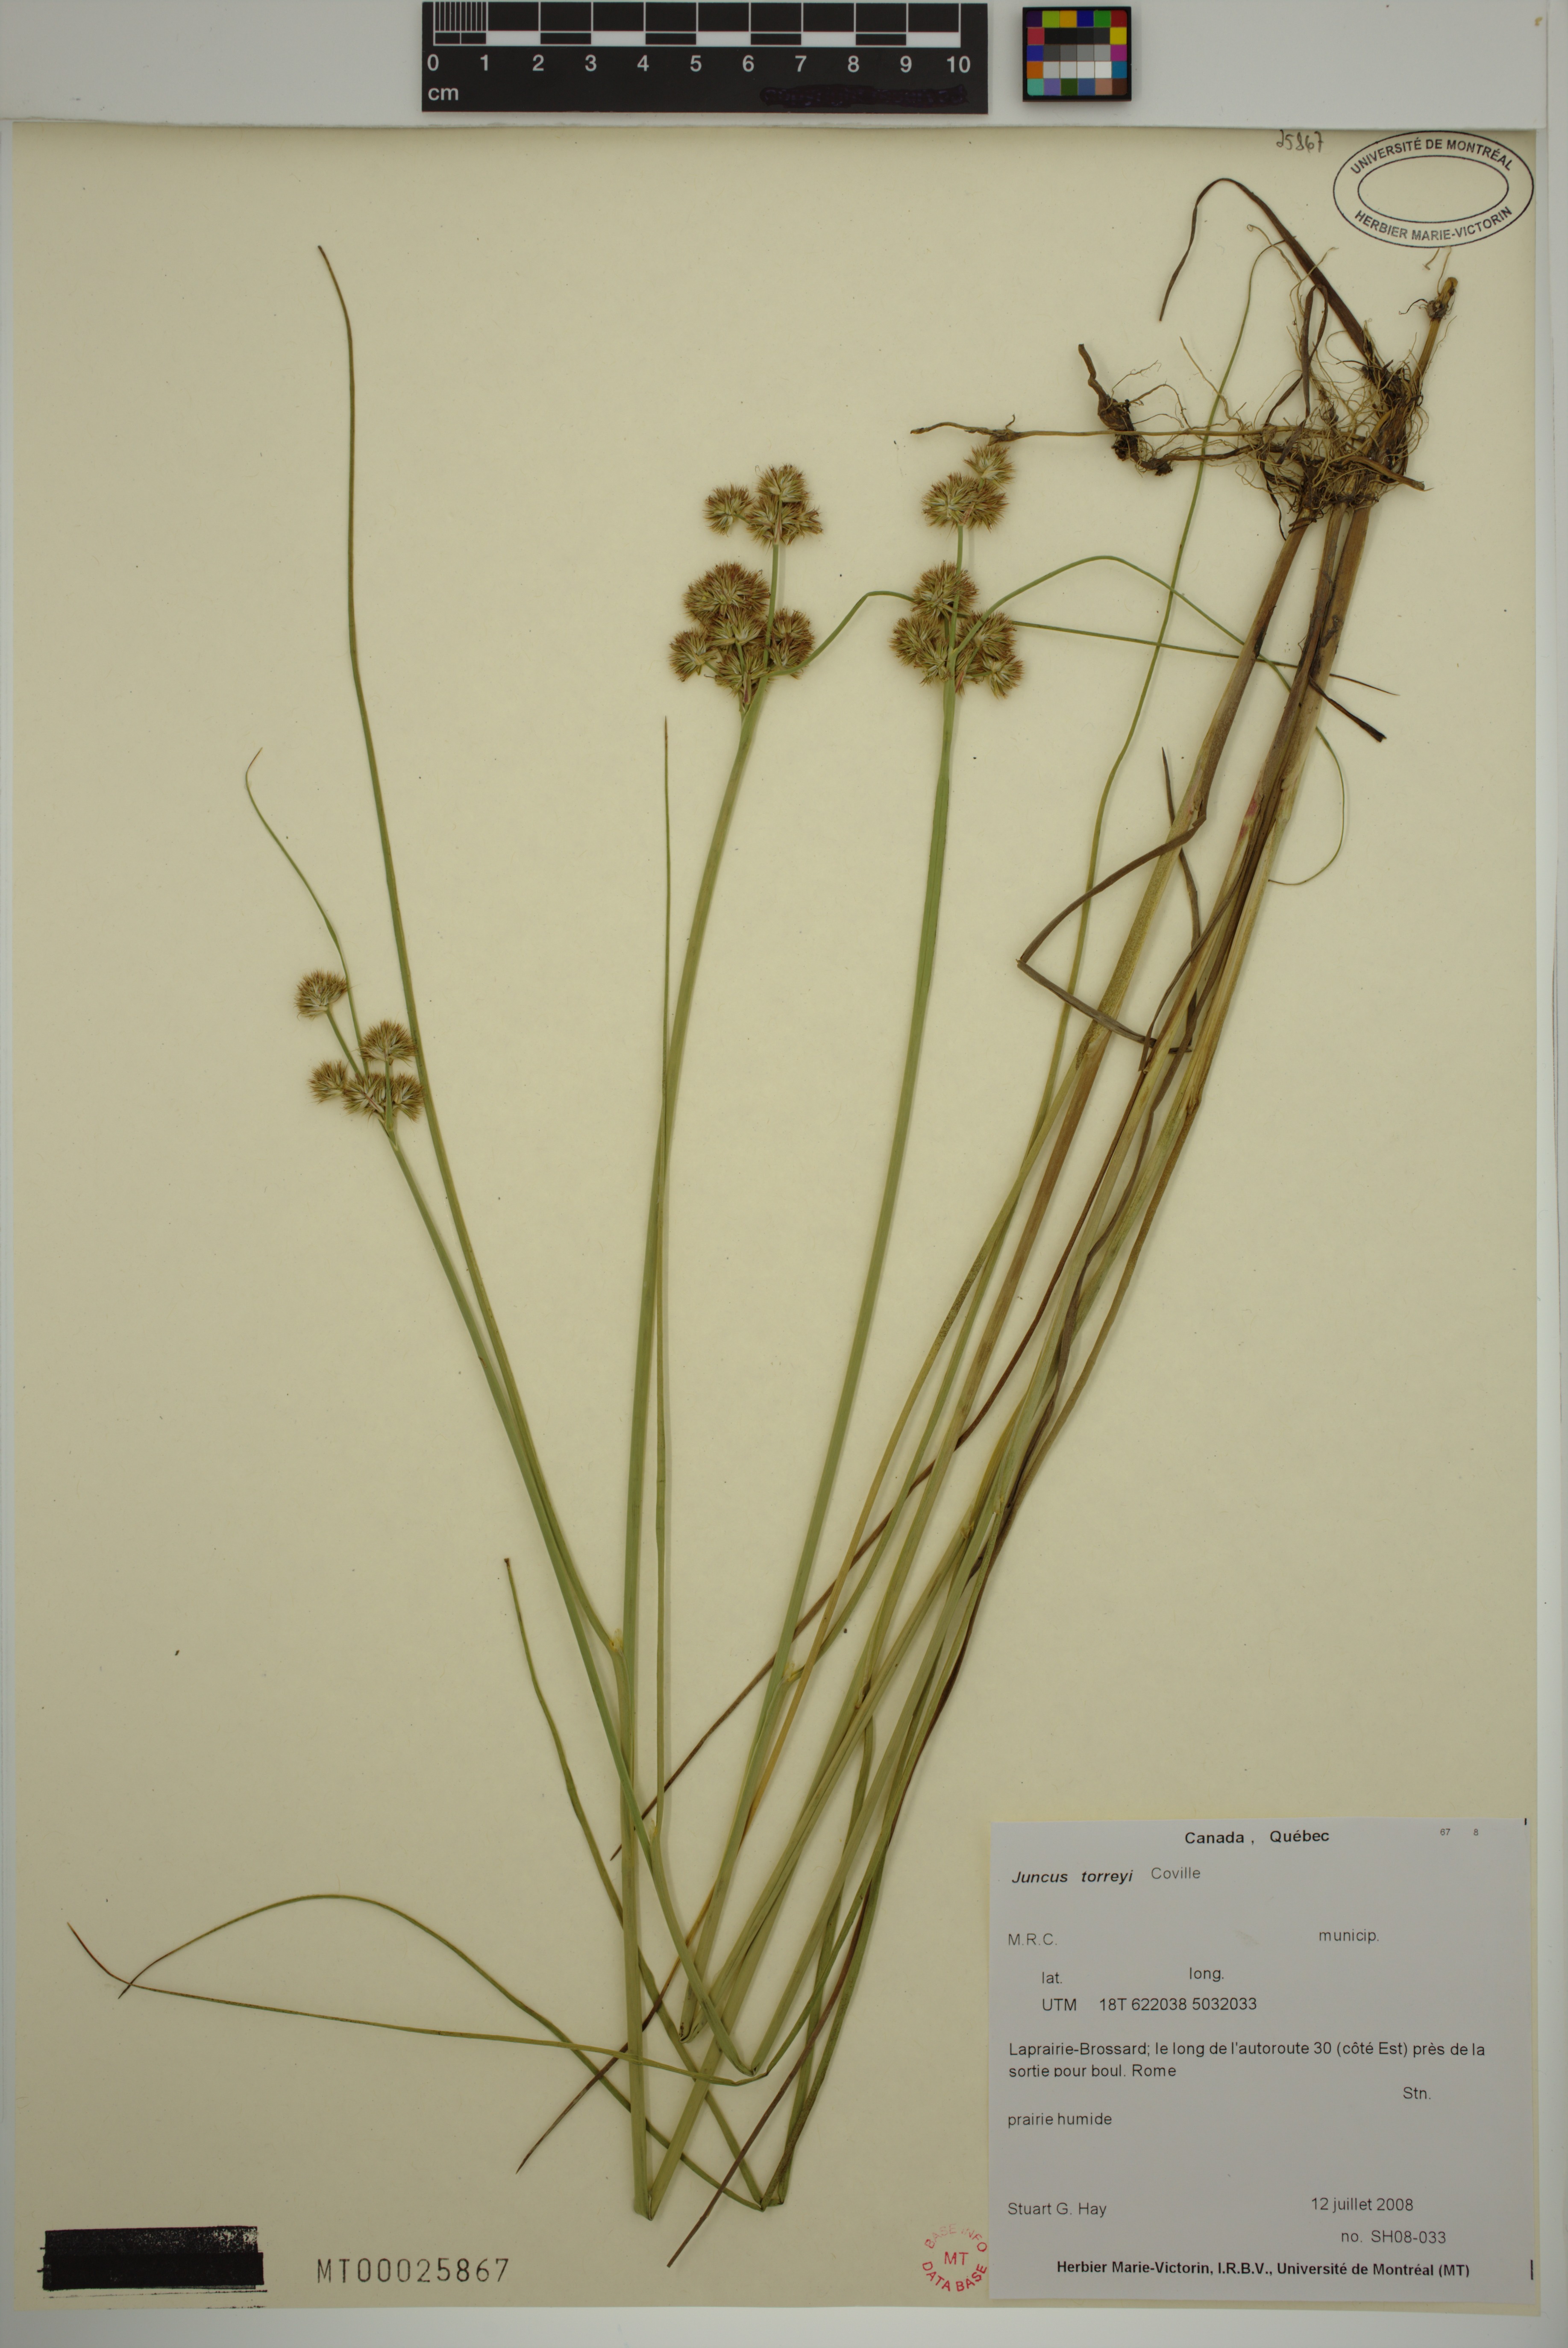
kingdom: Plantae
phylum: Tracheophyta
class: Liliopsida
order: Poales
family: Juncaceae
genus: Juncus
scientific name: Juncus torreyi
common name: Torrey's rush
